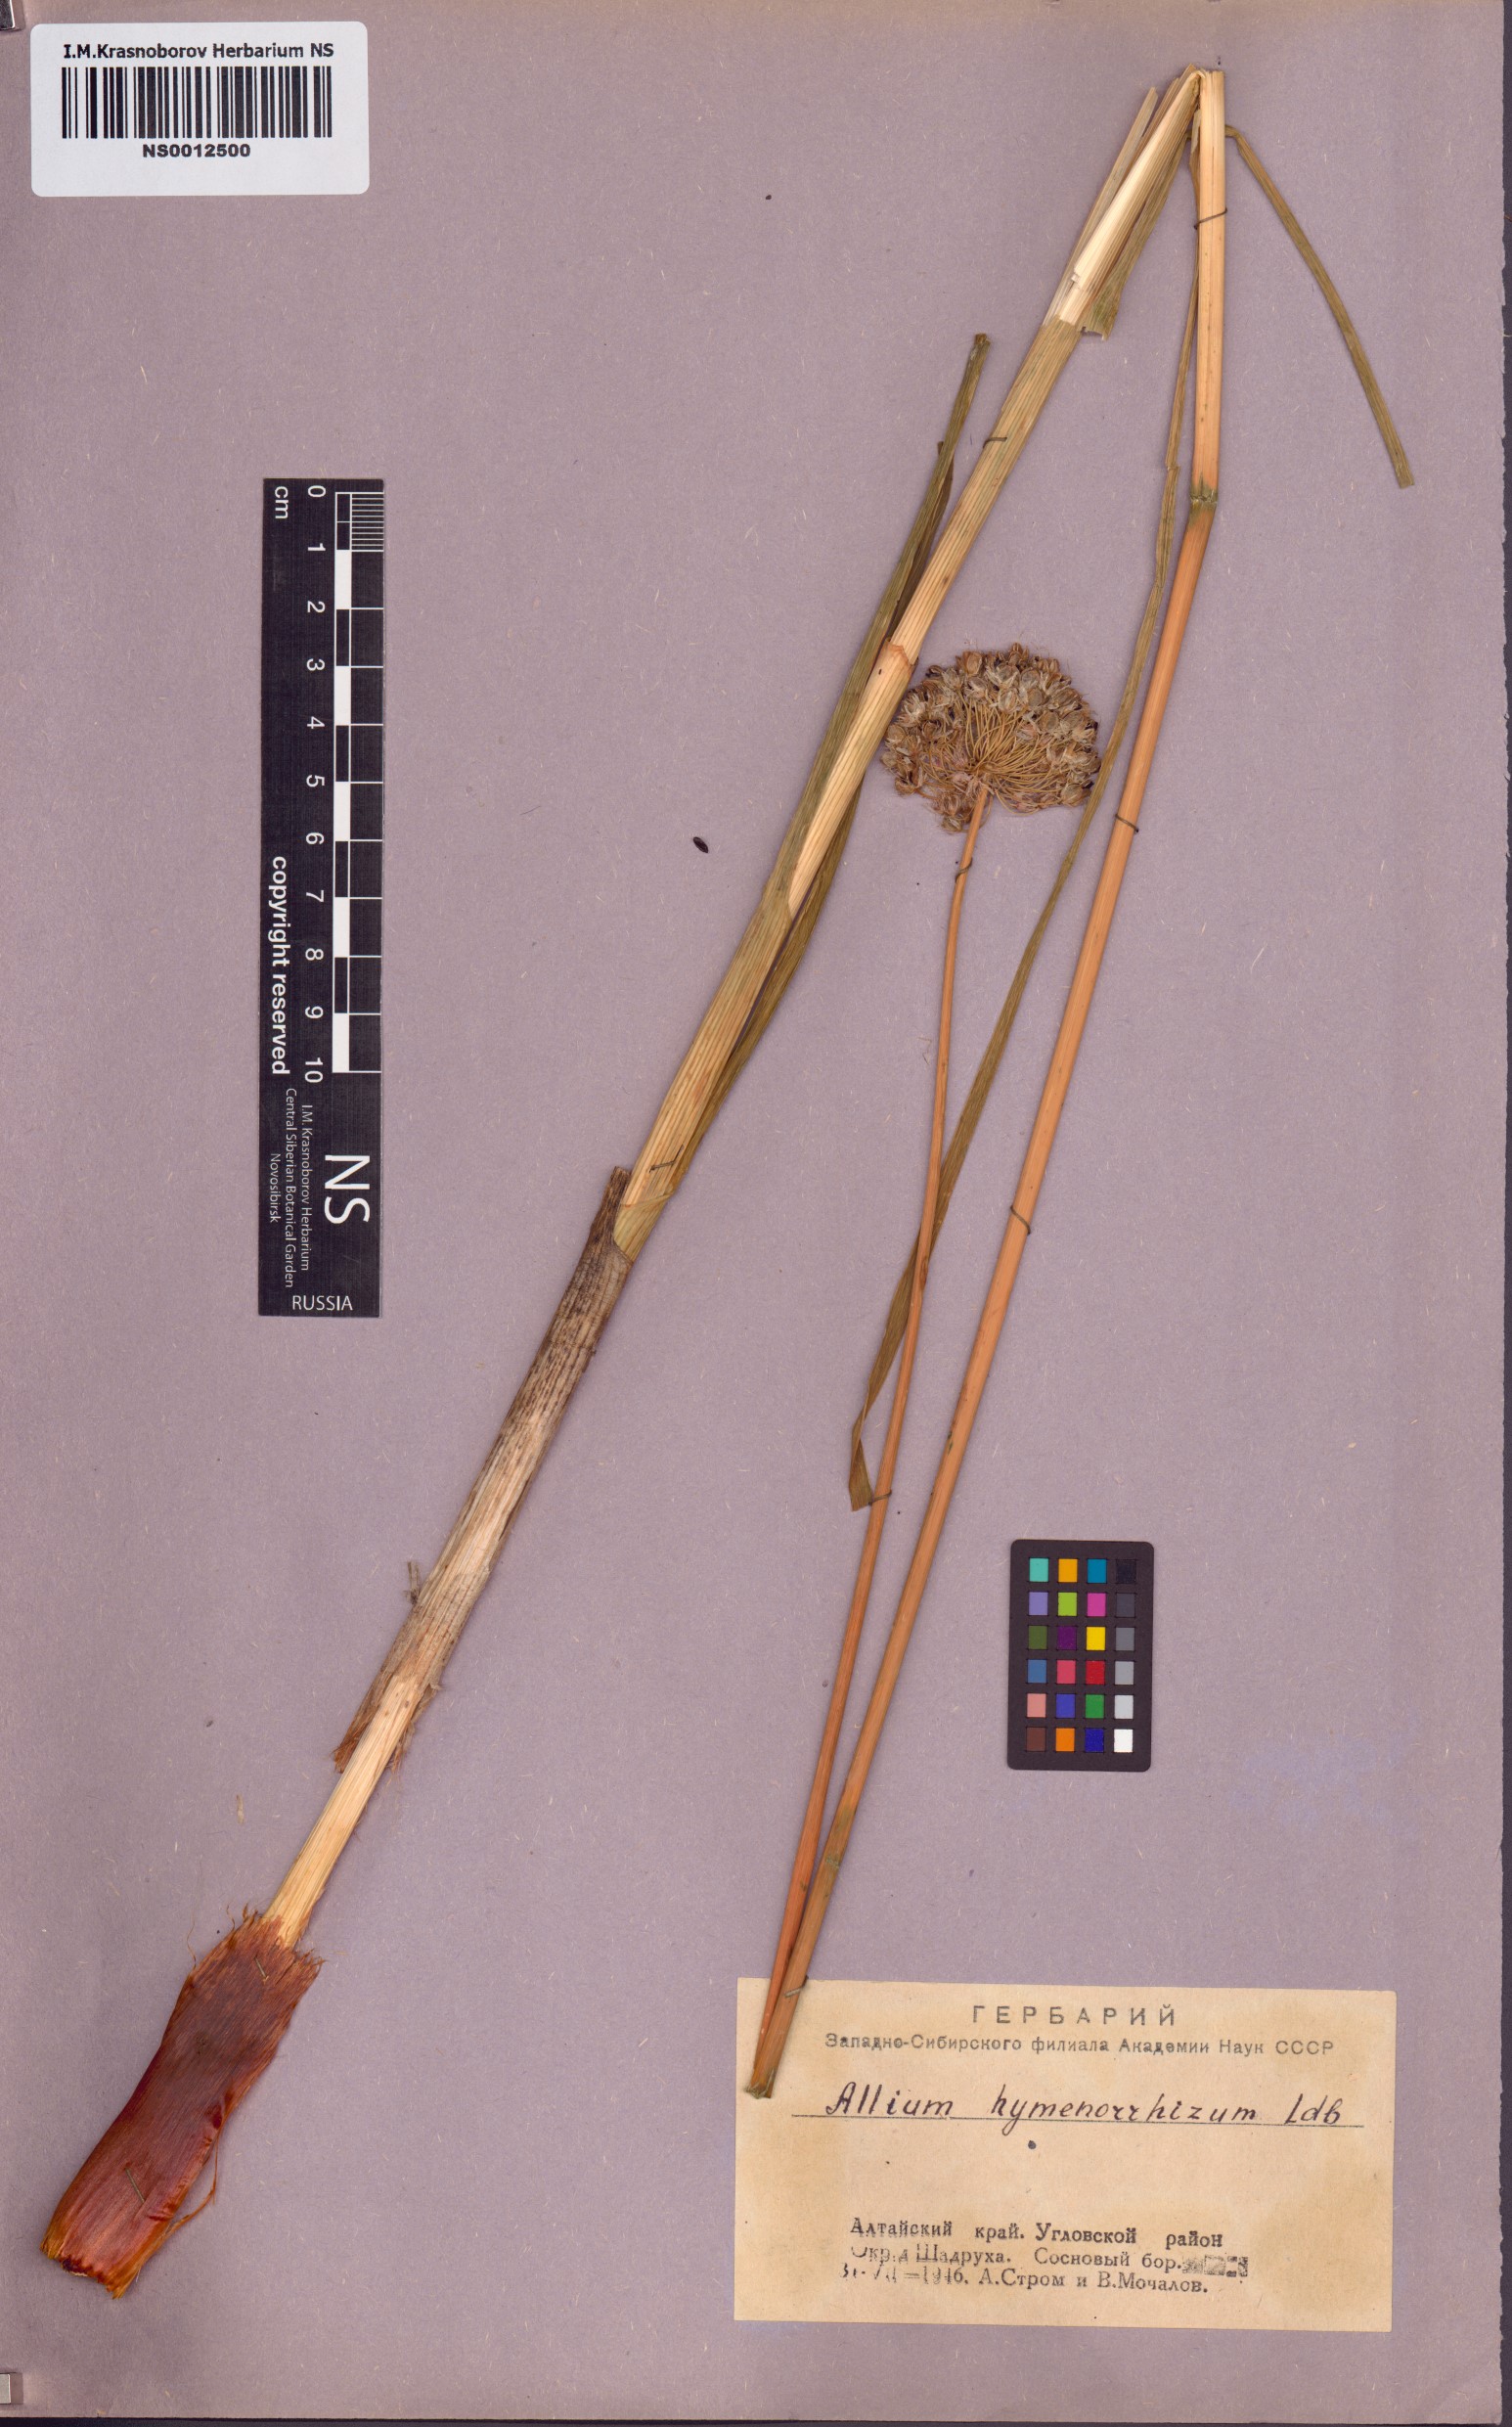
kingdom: Plantae
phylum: Tracheophyta
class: Liliopsida
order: Asparagales
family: Amaryllidaceae
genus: Allium
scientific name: Allium hymenorhizum
